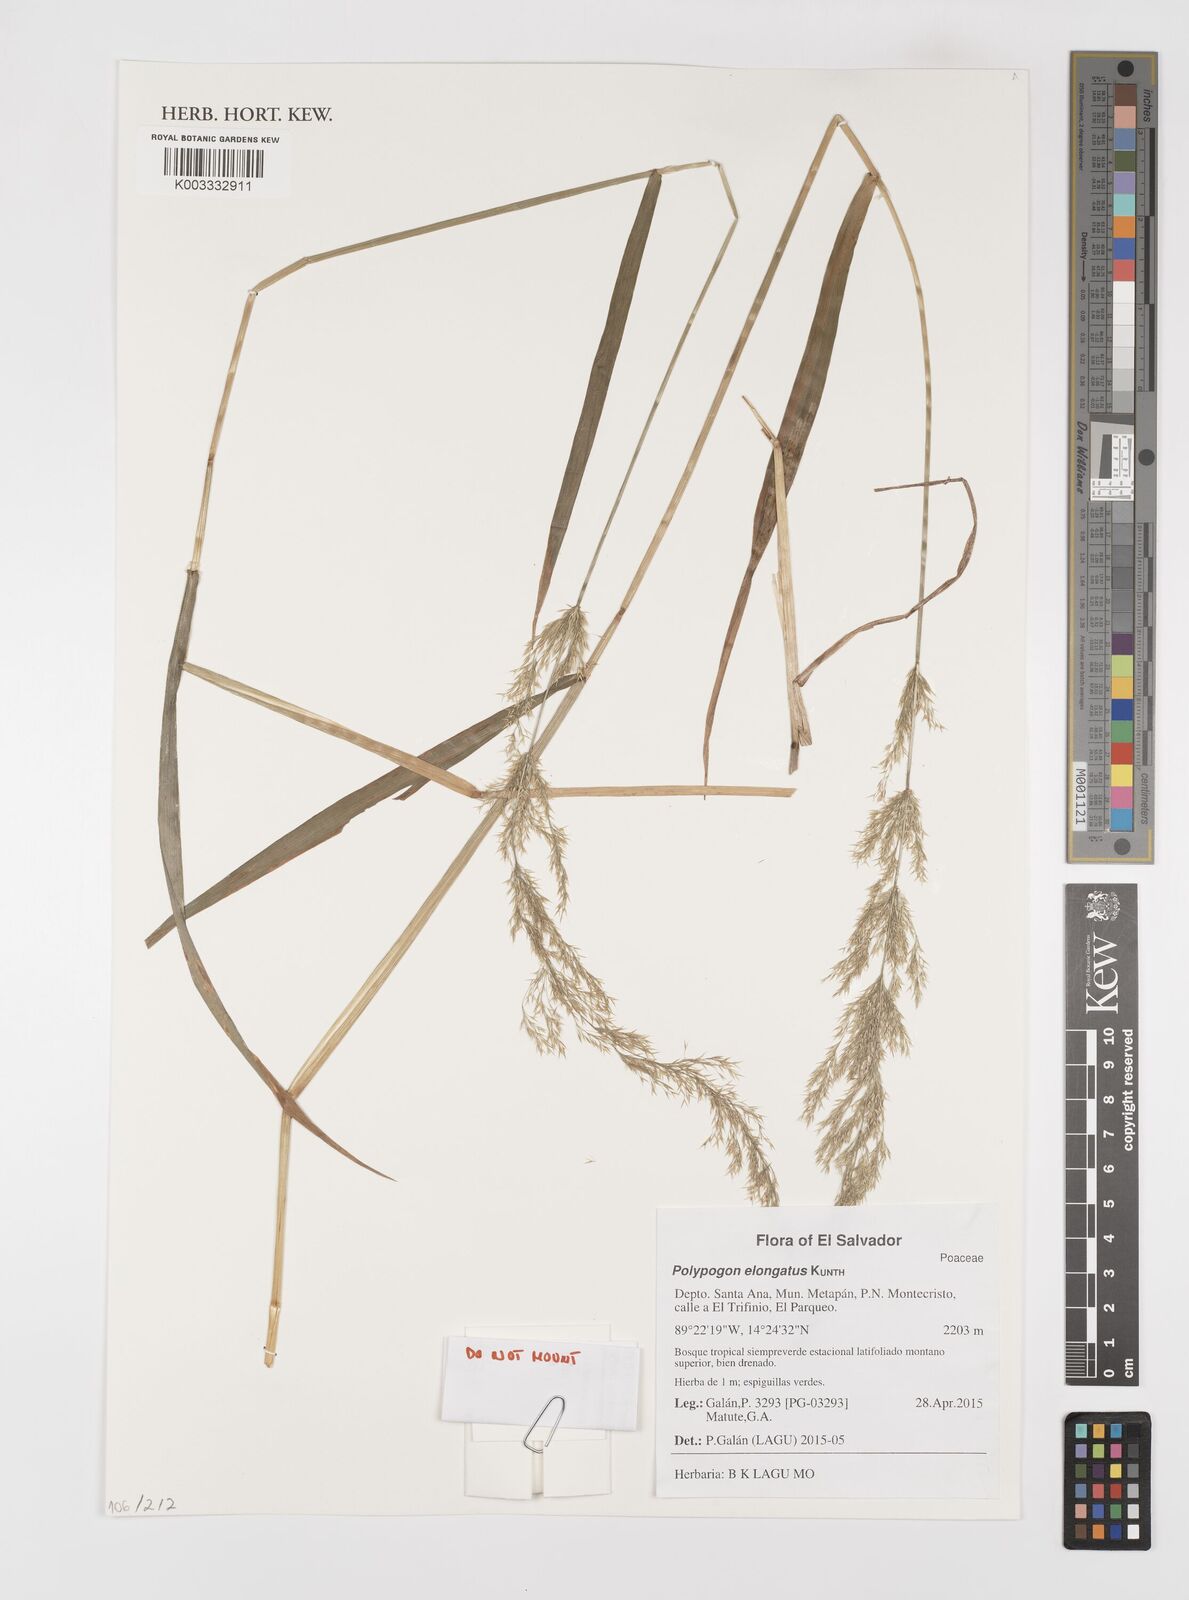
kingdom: Plantae
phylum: Tracheophyta
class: Liliopsida
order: Poales
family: Poaceae
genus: Polypogon
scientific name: Polypogon elongatus
